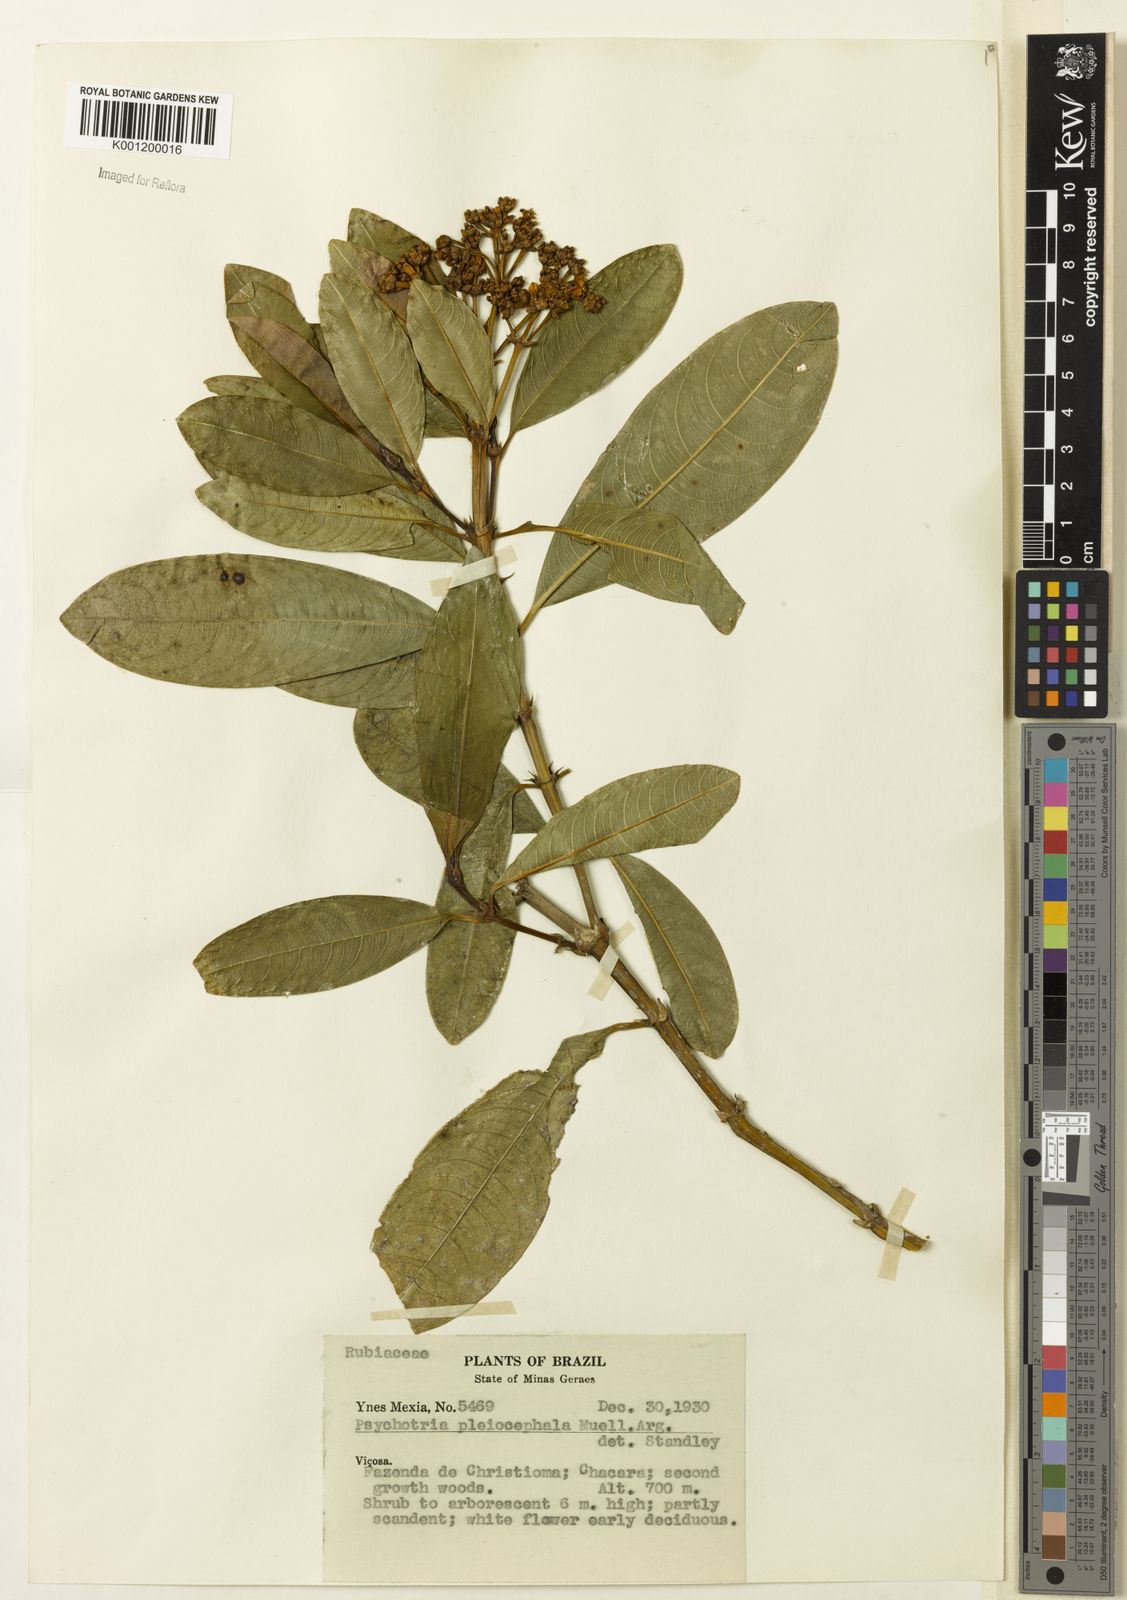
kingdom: Plantae
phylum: Tracheophyta
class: Magnoliopsida
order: Gentianales
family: Rubiaceae
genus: Psychotria
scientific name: Psychotria
